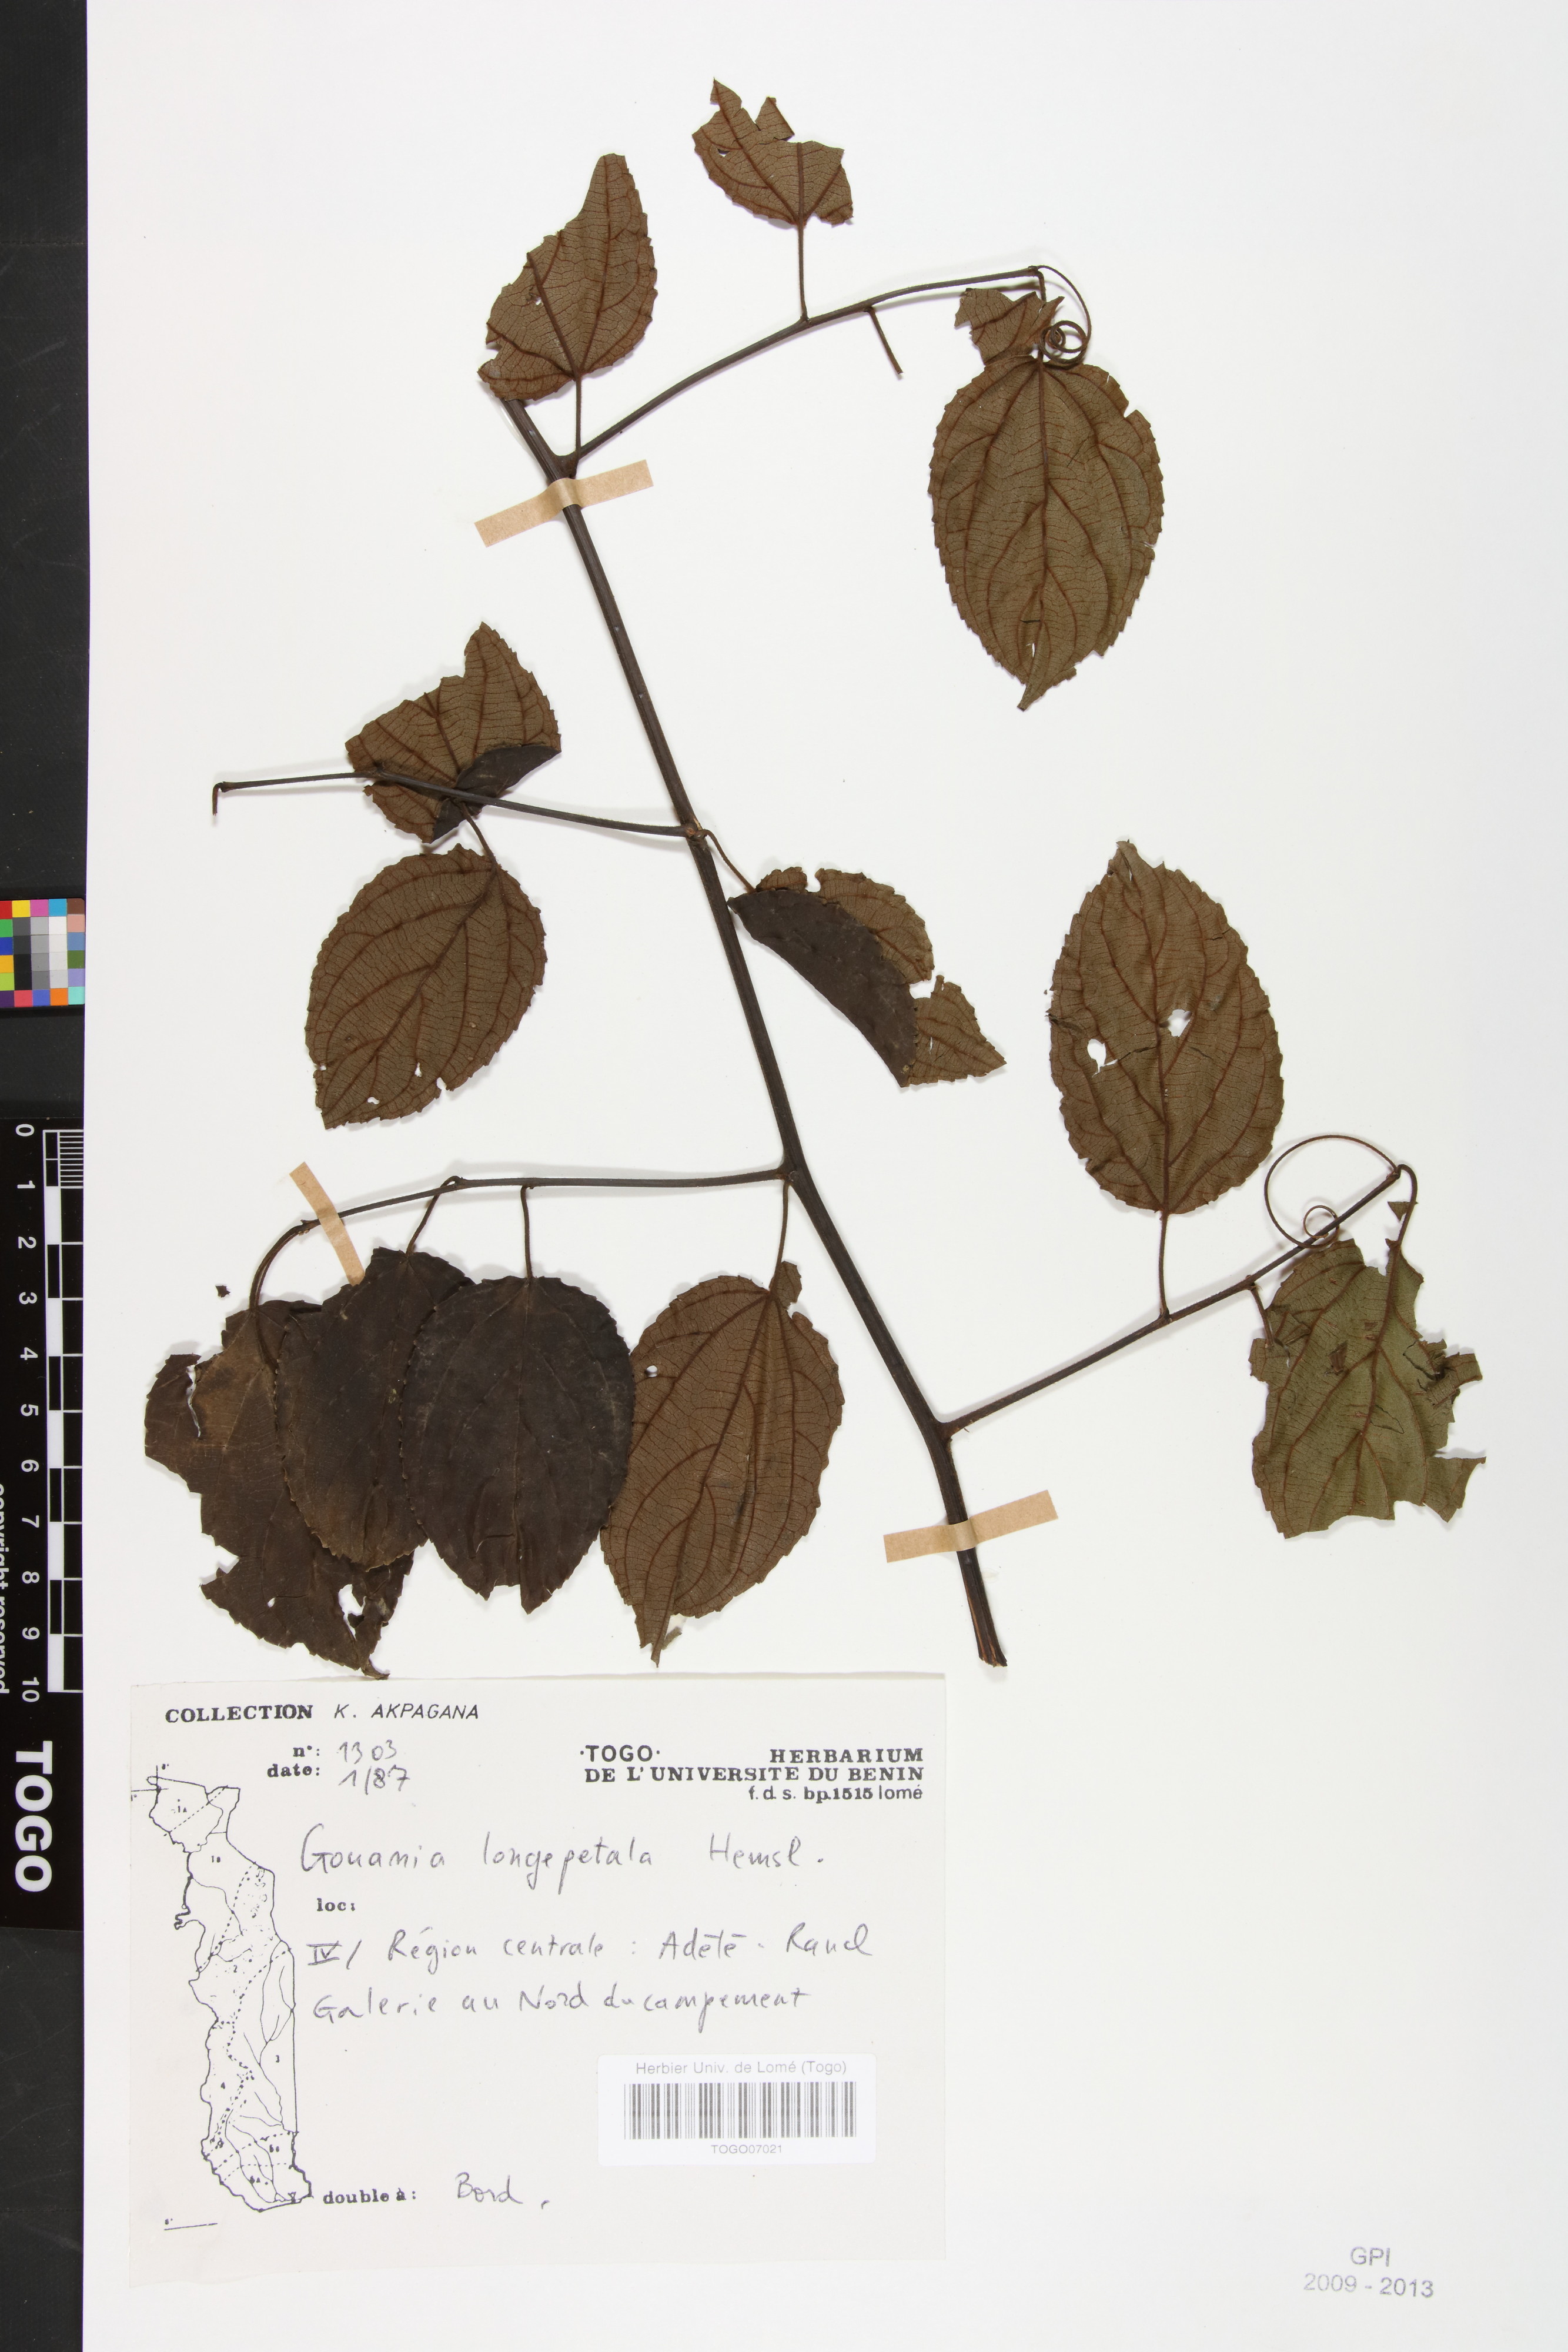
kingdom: Plantae
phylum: Tracheophyta
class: Magnoliopsida
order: Rosales
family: Rhamnaceae
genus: Gouania
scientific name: Gouania longipetala
